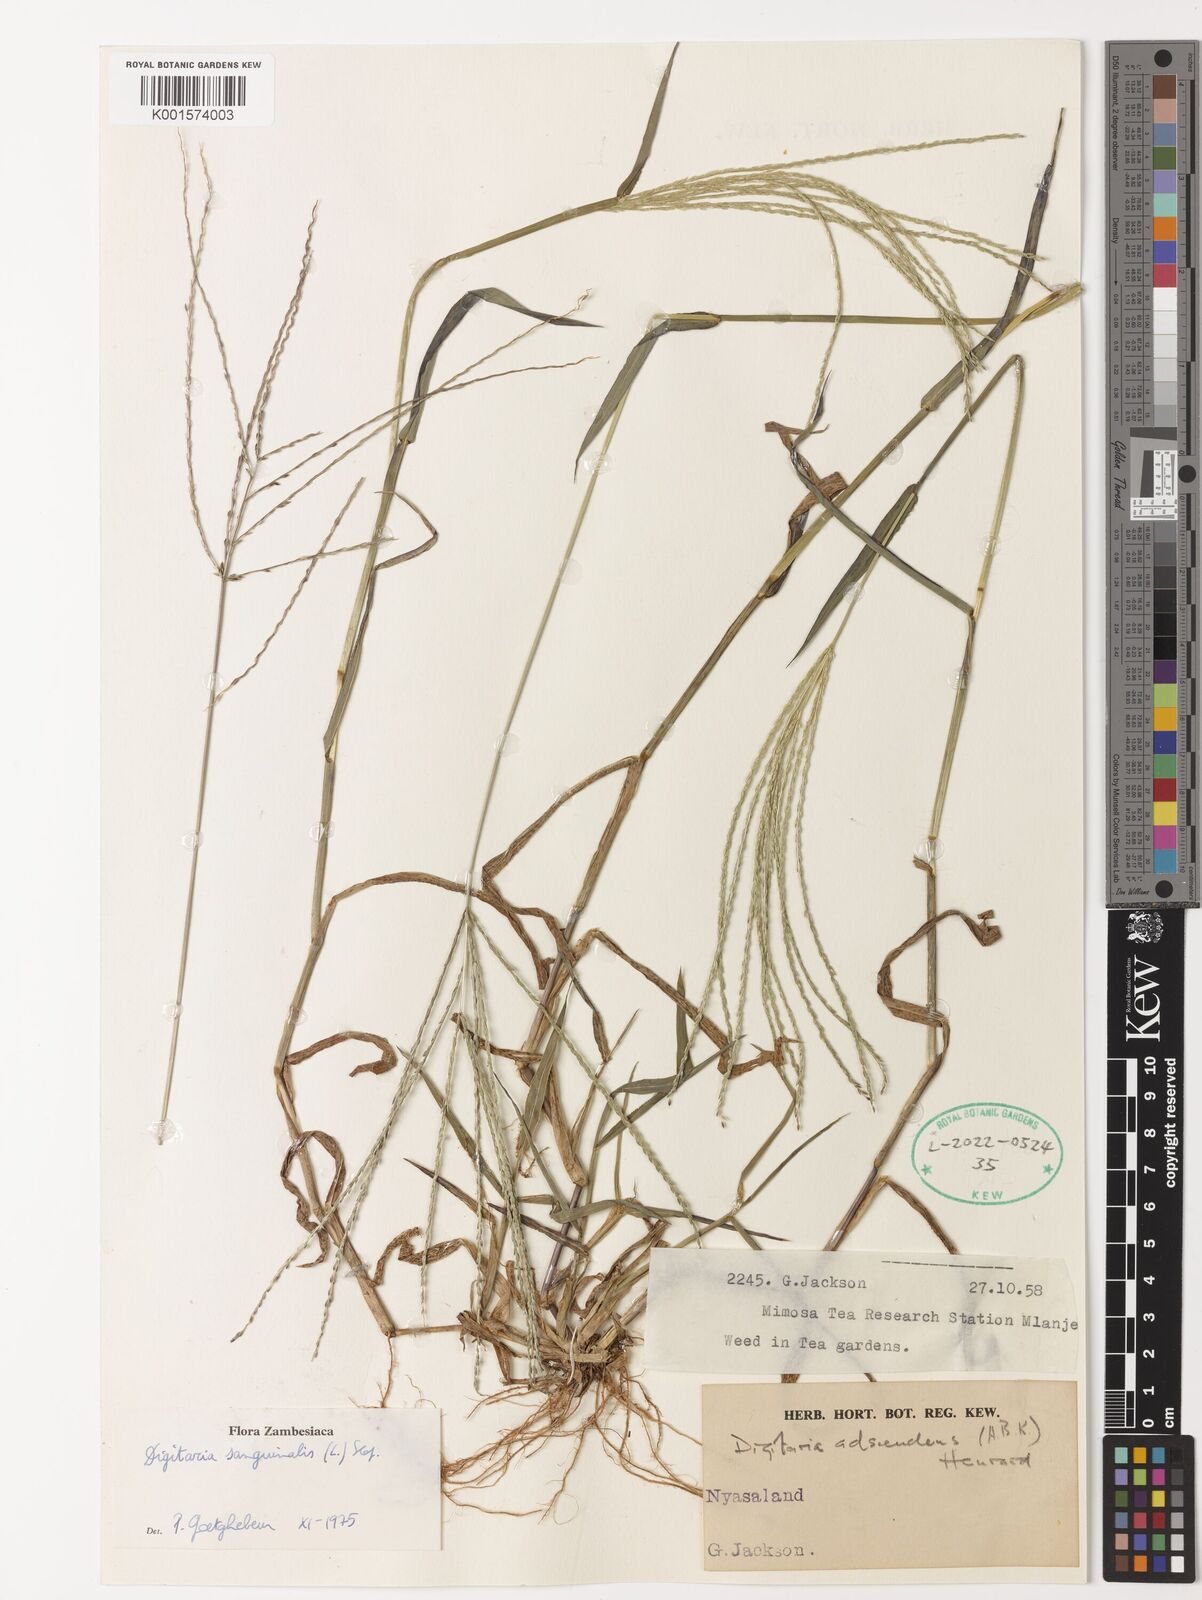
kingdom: Plantae
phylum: Tracheophyta
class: Liliopsida
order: Poales
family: Poaceae
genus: Digitaria
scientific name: Digitaria sanguinalis
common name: Hairy crabgrass
